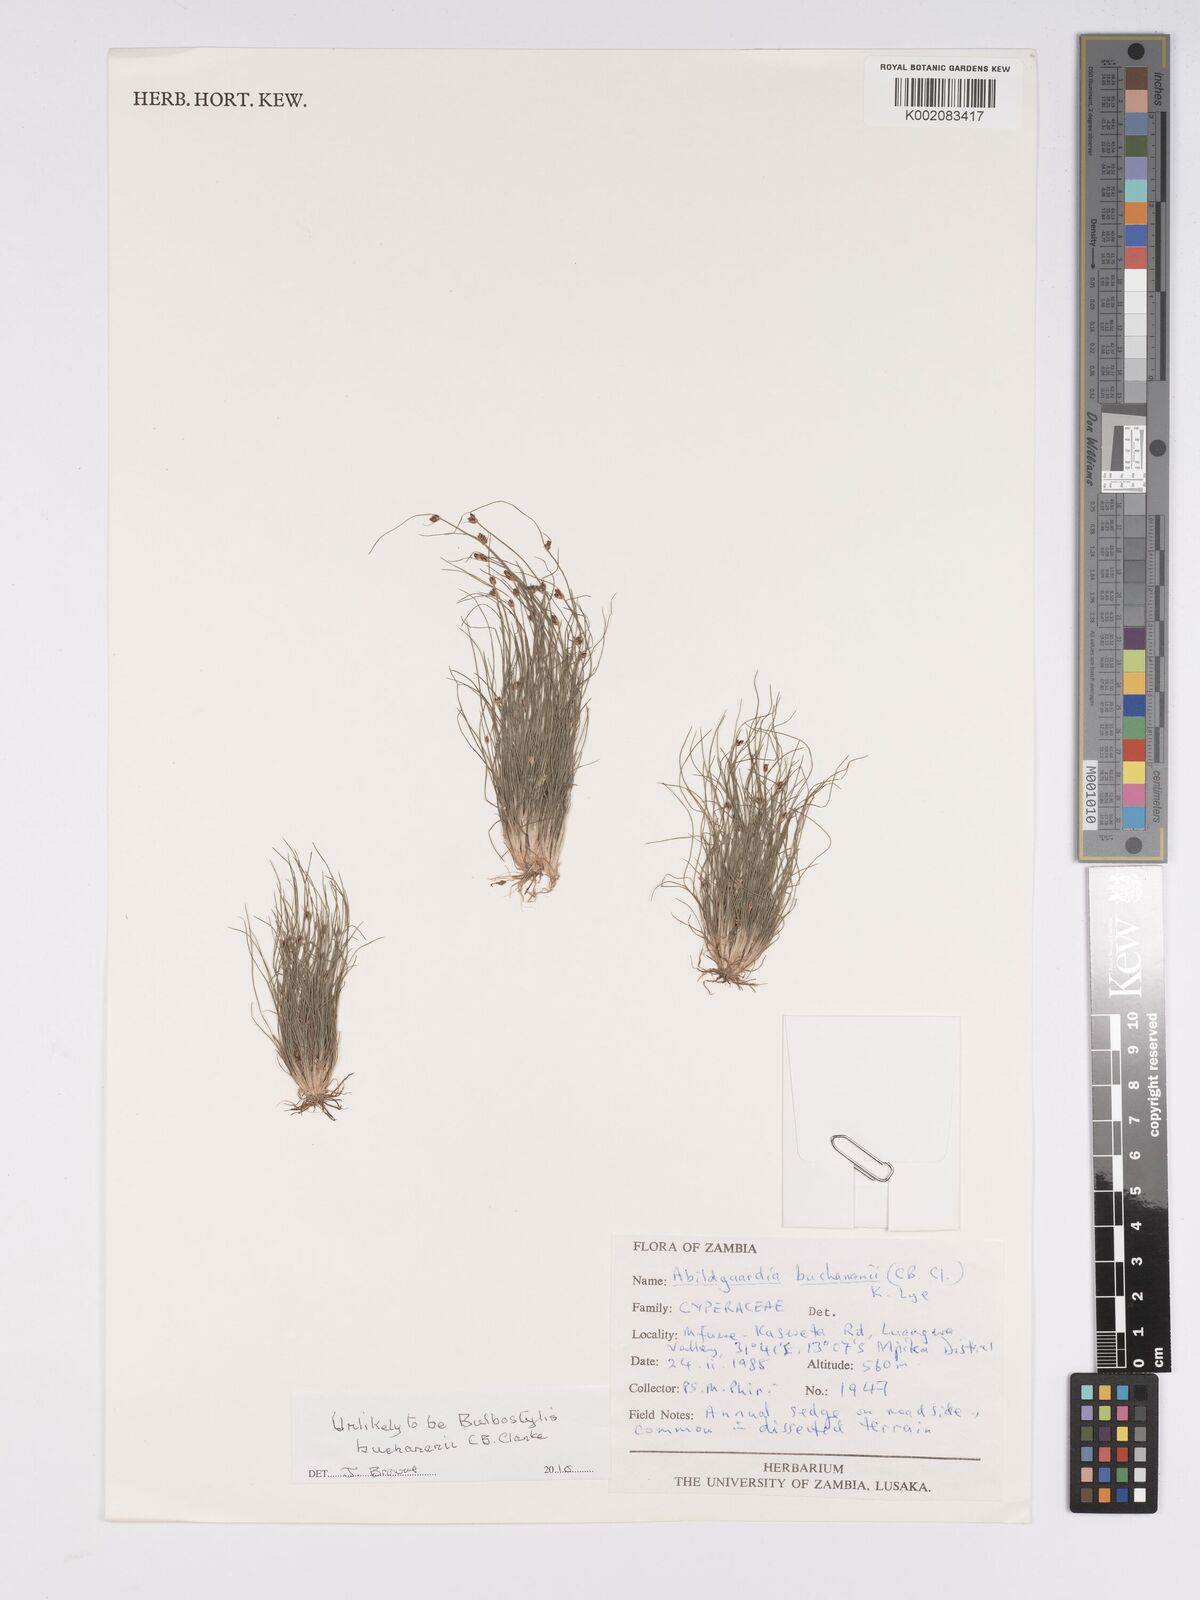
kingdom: Plantae
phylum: Tracheophyta
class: Liliopsida
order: Poales
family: Cyperaceae
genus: Bulbostylis
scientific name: Bulbostylis buchananii
